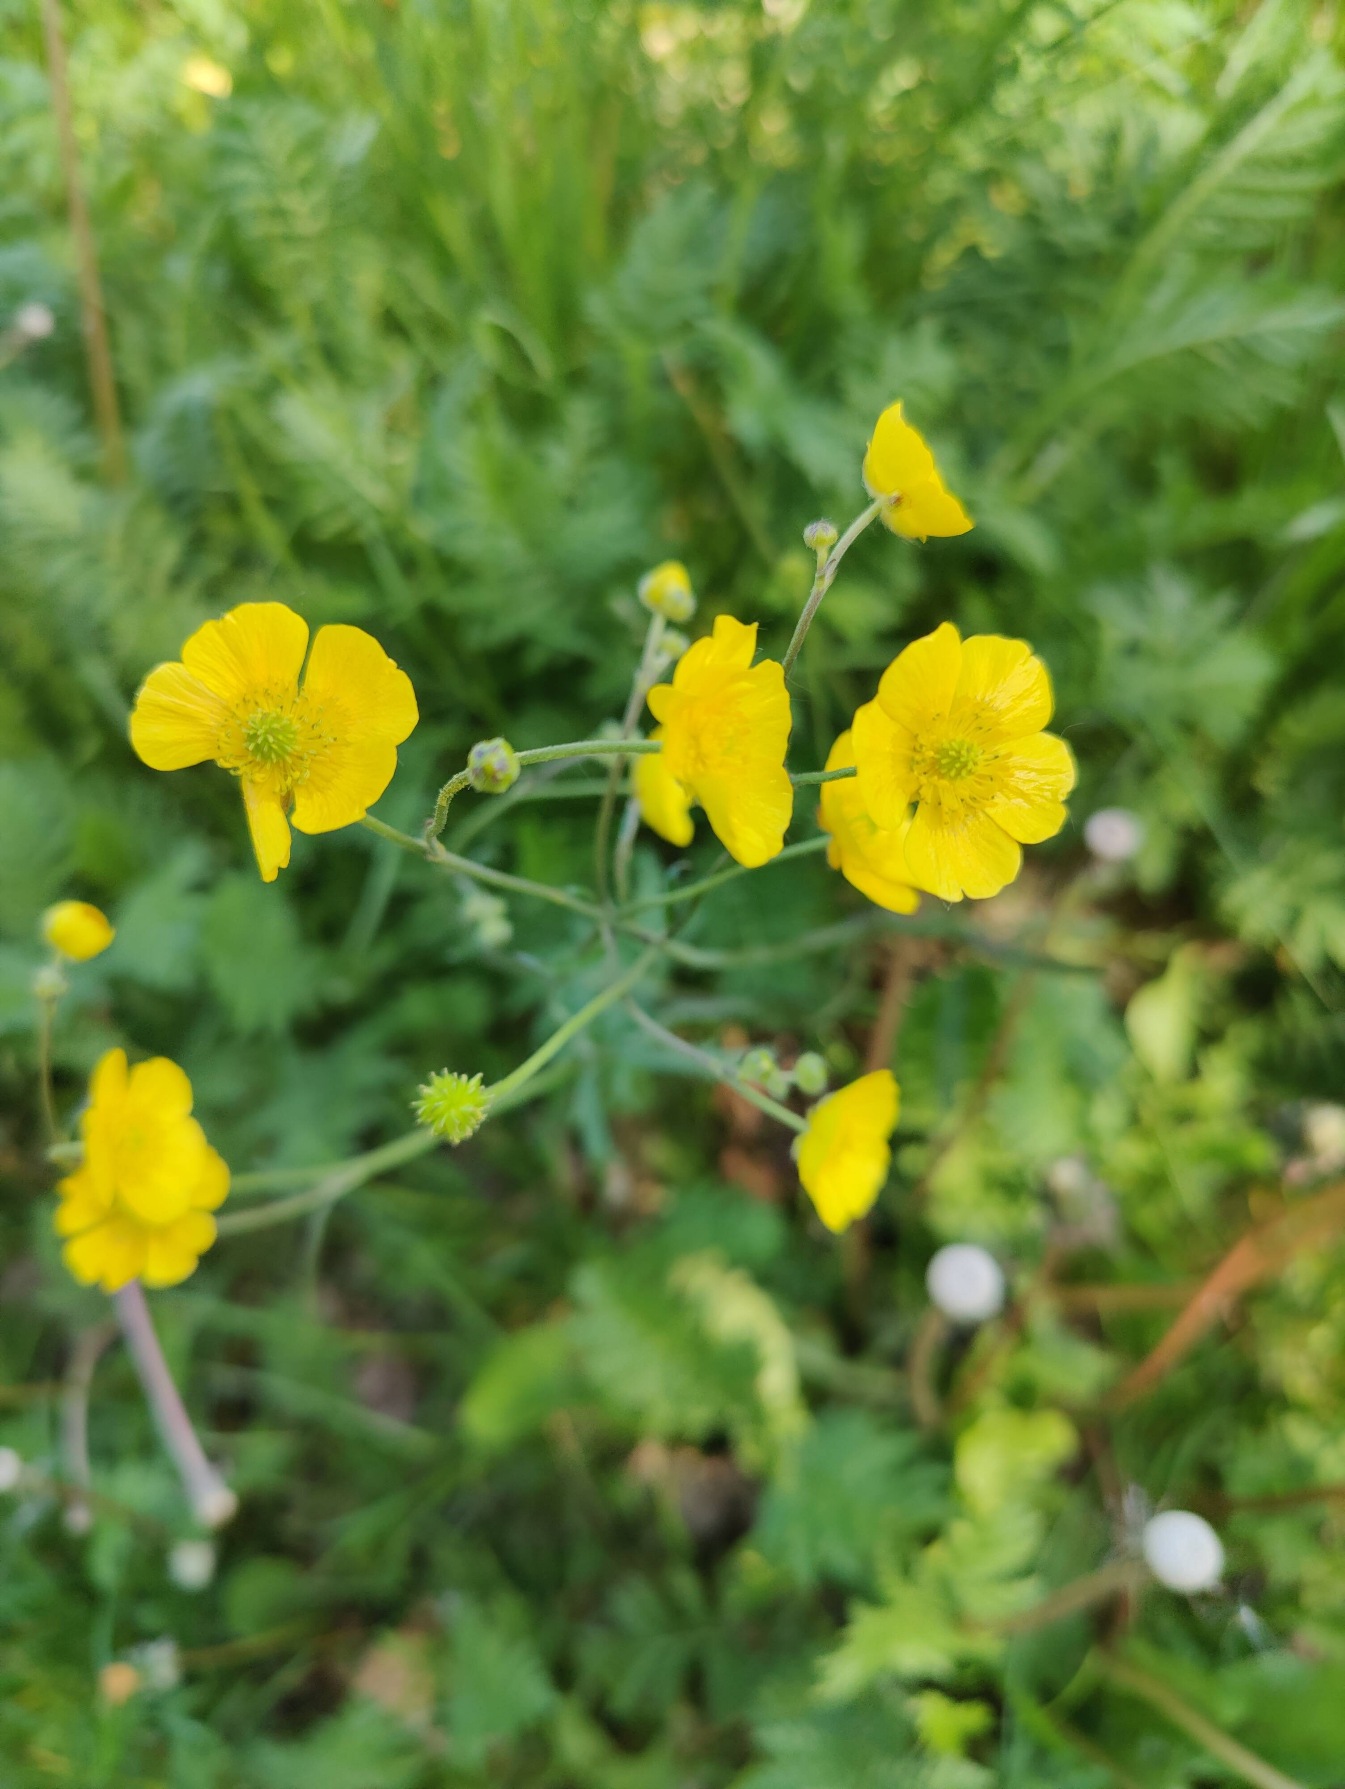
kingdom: Plantae
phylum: Tracheophyta
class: Magnoliopsida
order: Ranunculales
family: Ranunculaceae
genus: Ranunculus
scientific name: Ranunculus acris
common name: Bidende ranunkel
